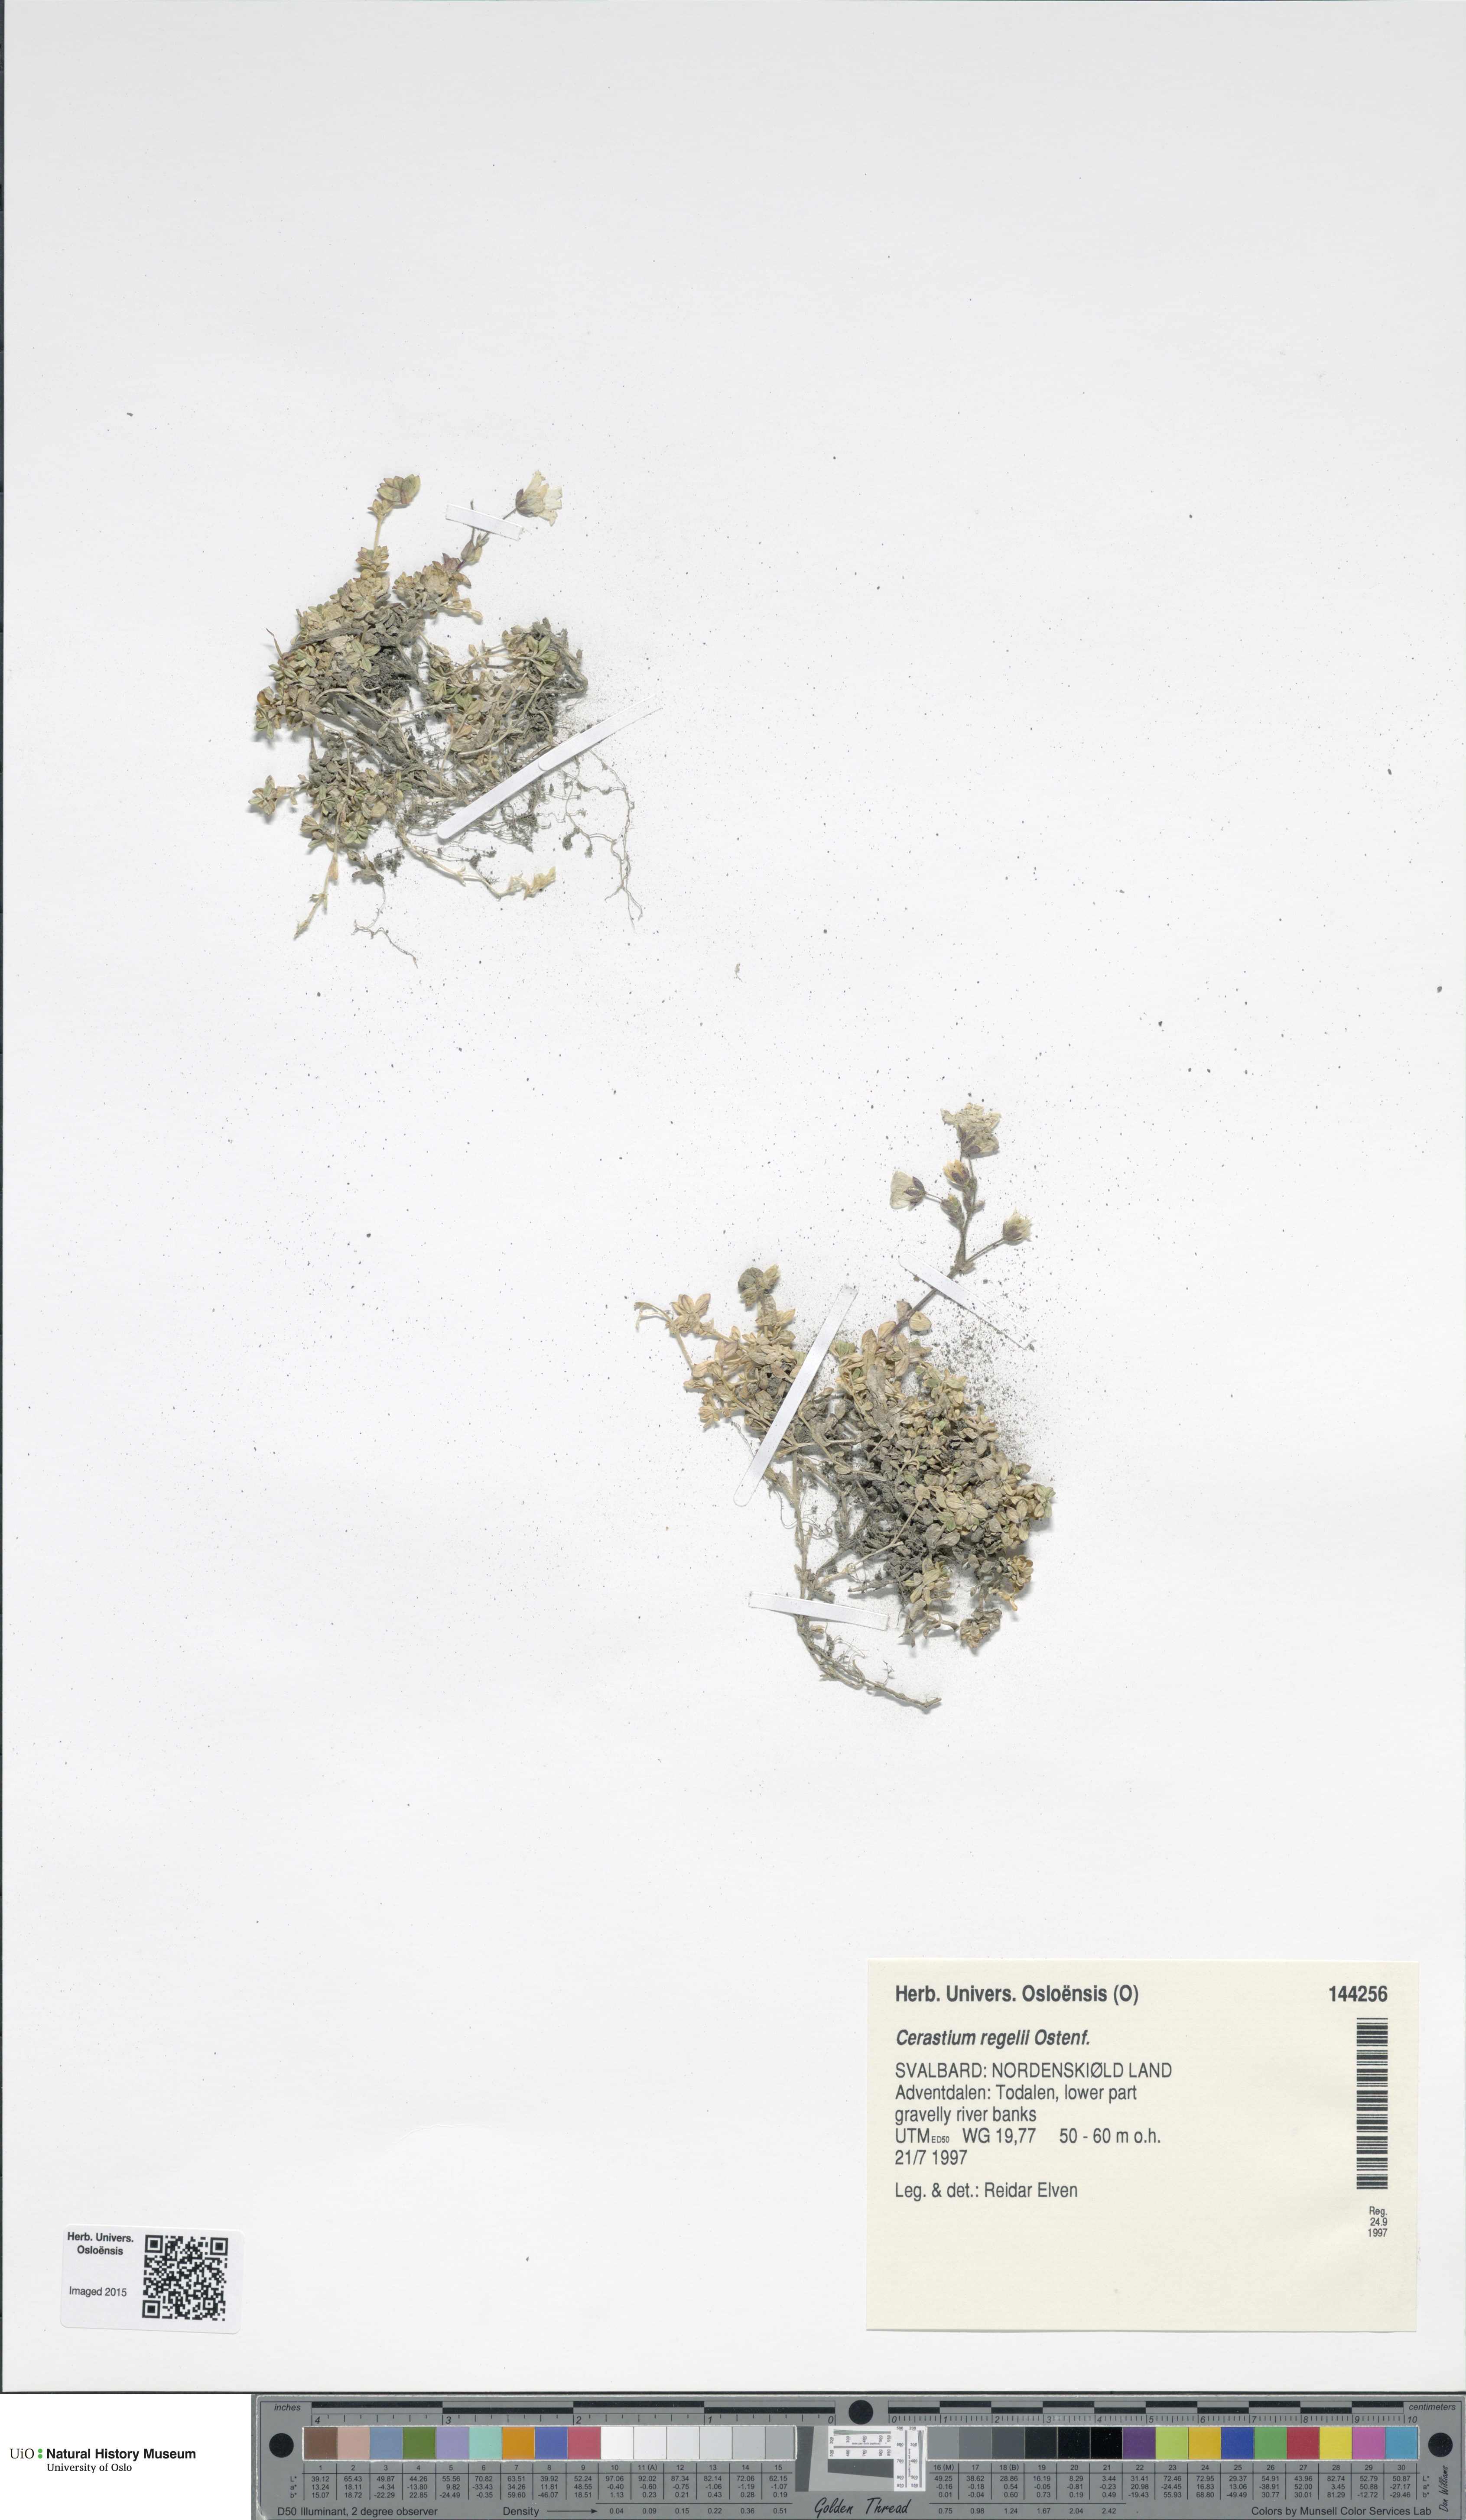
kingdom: Plantae
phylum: Tracheophyta
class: Magnoliopsida
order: Caryophyllales
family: Caryophyllaceae
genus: Cerastium
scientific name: Cerastium regelii
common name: Regel's chickweed
